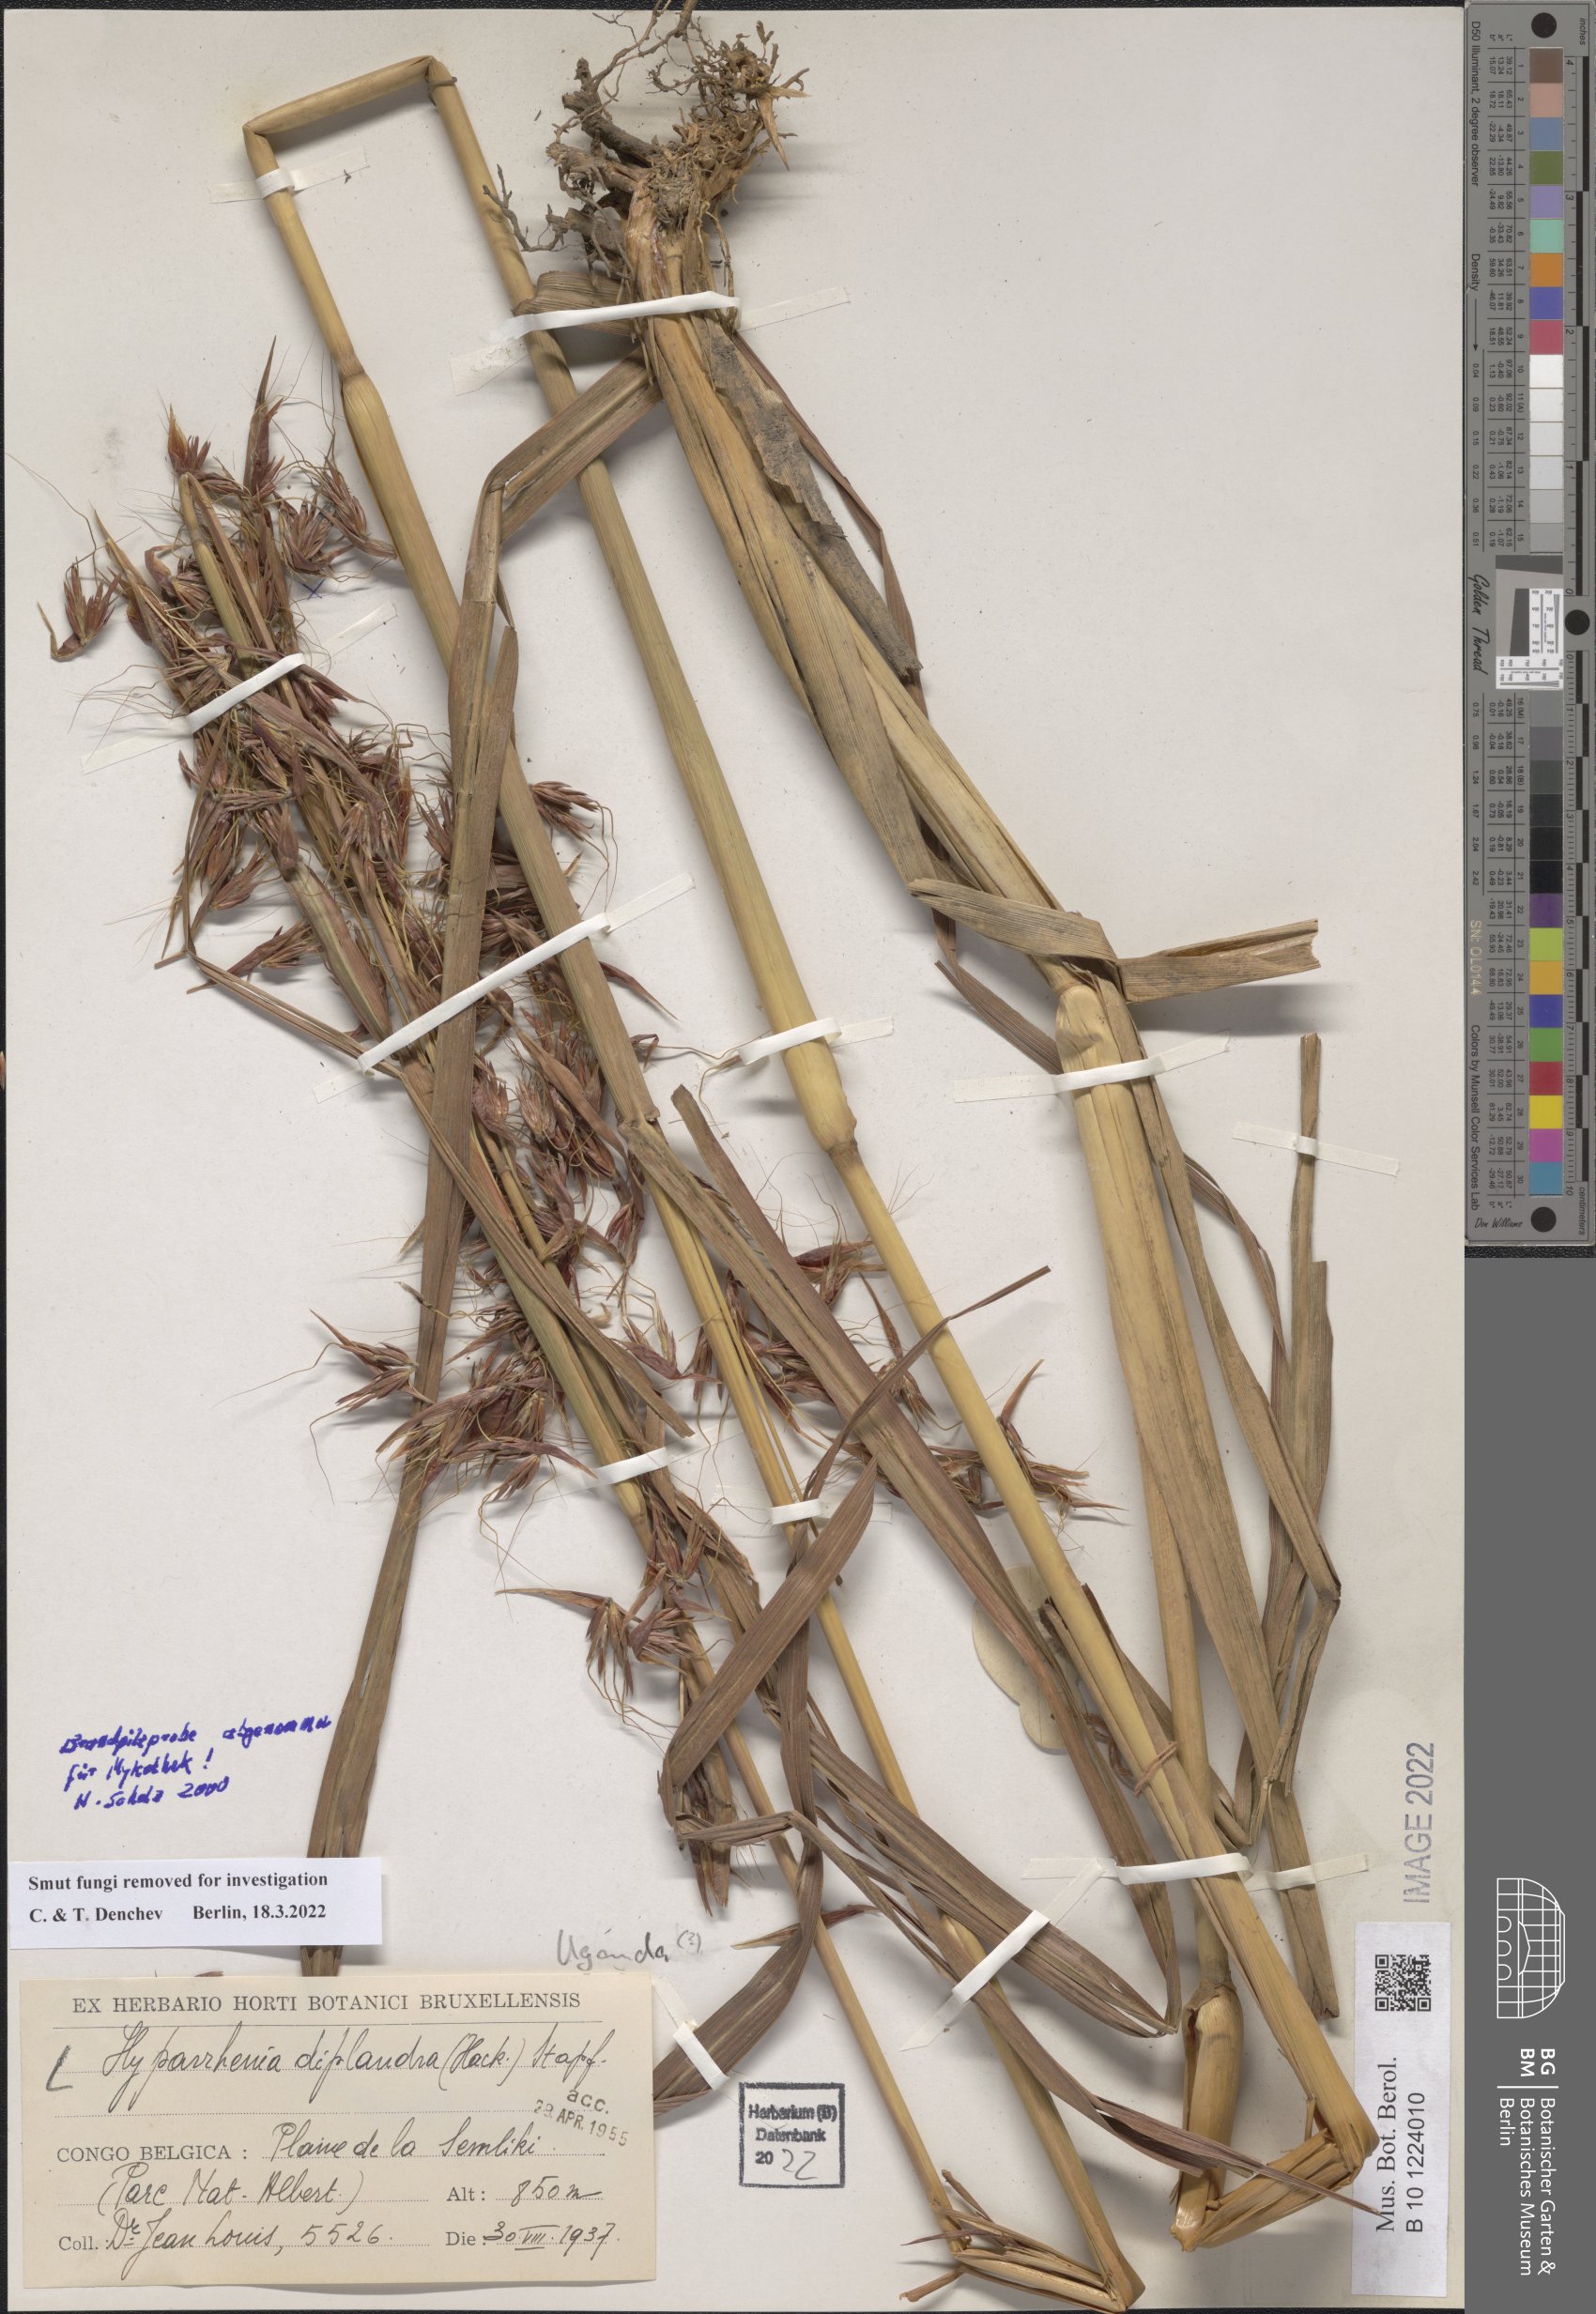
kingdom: Plantae
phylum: Tracheophyta
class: Liliopsida
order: Poales
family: Poaceae
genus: Hyparrhenia
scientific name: Hyparrhenia diplandra
